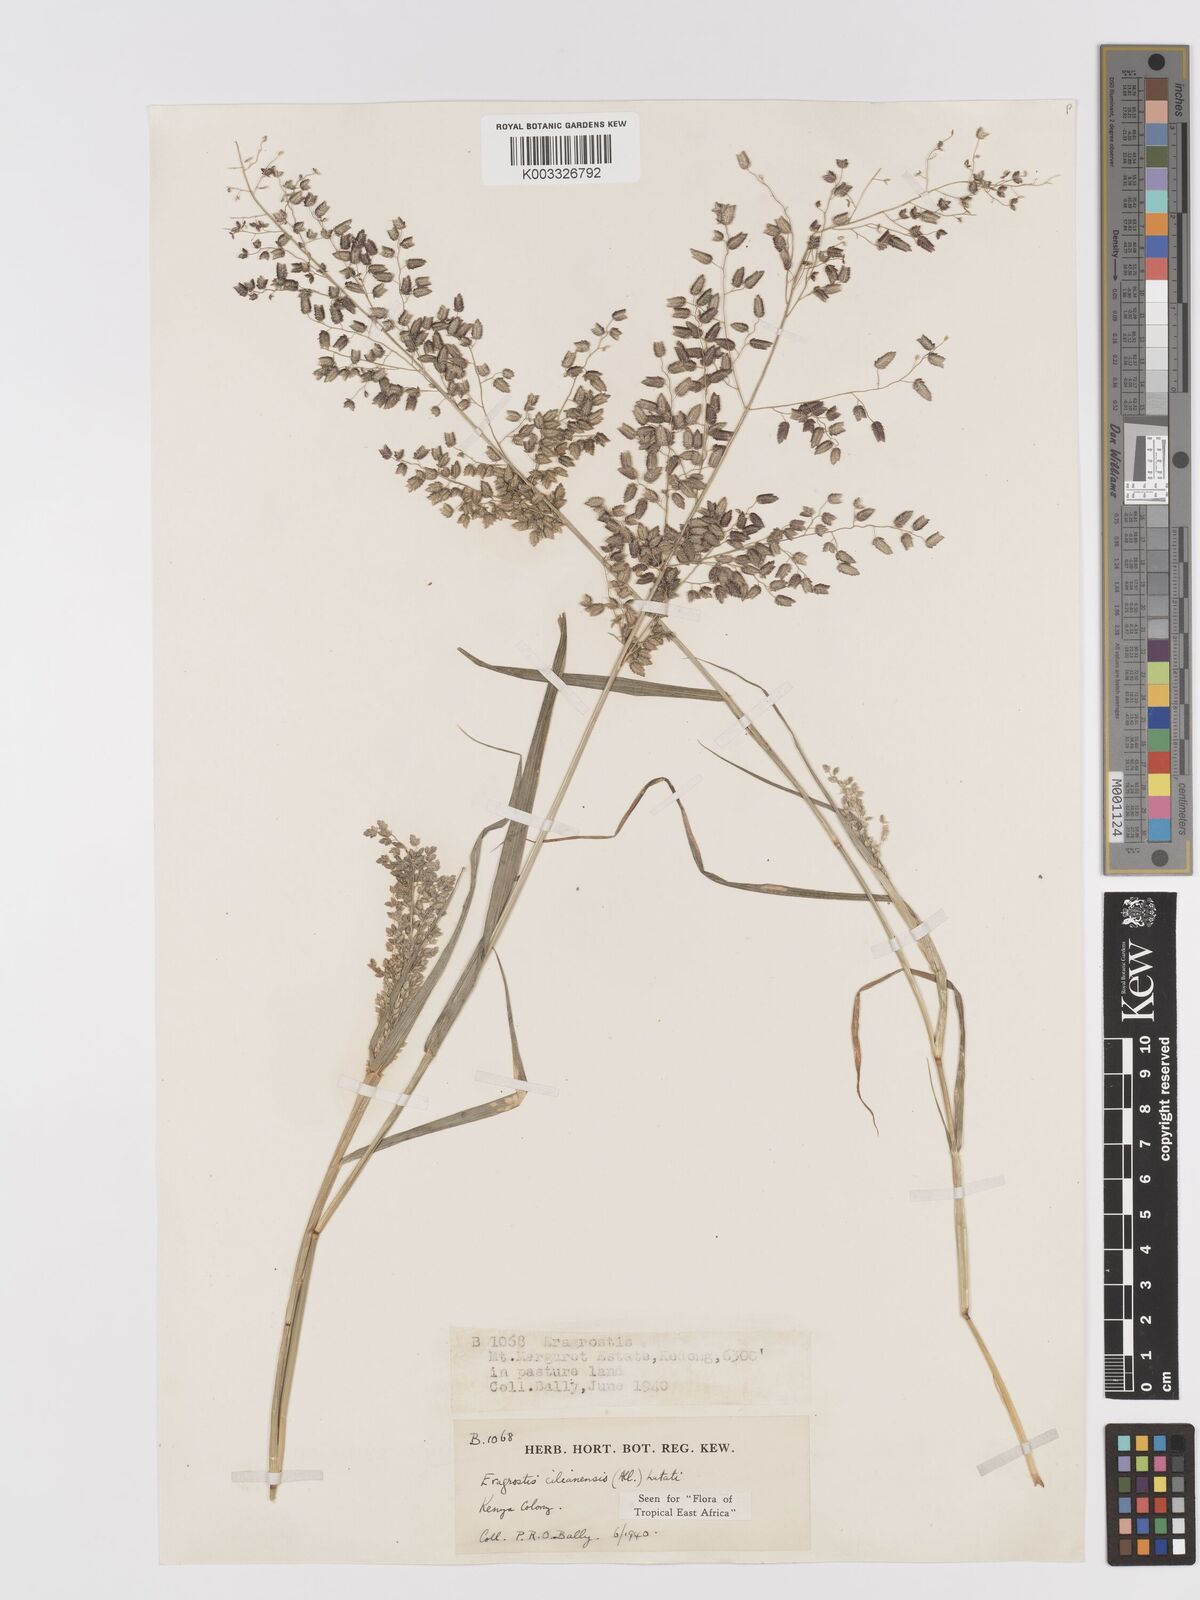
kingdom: Plantae
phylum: Tracheophyta
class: Liliopsida
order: Poales
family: Poaceae
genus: Eragrostis
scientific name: Eragrostis cilianensis
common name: Stinkgrass
